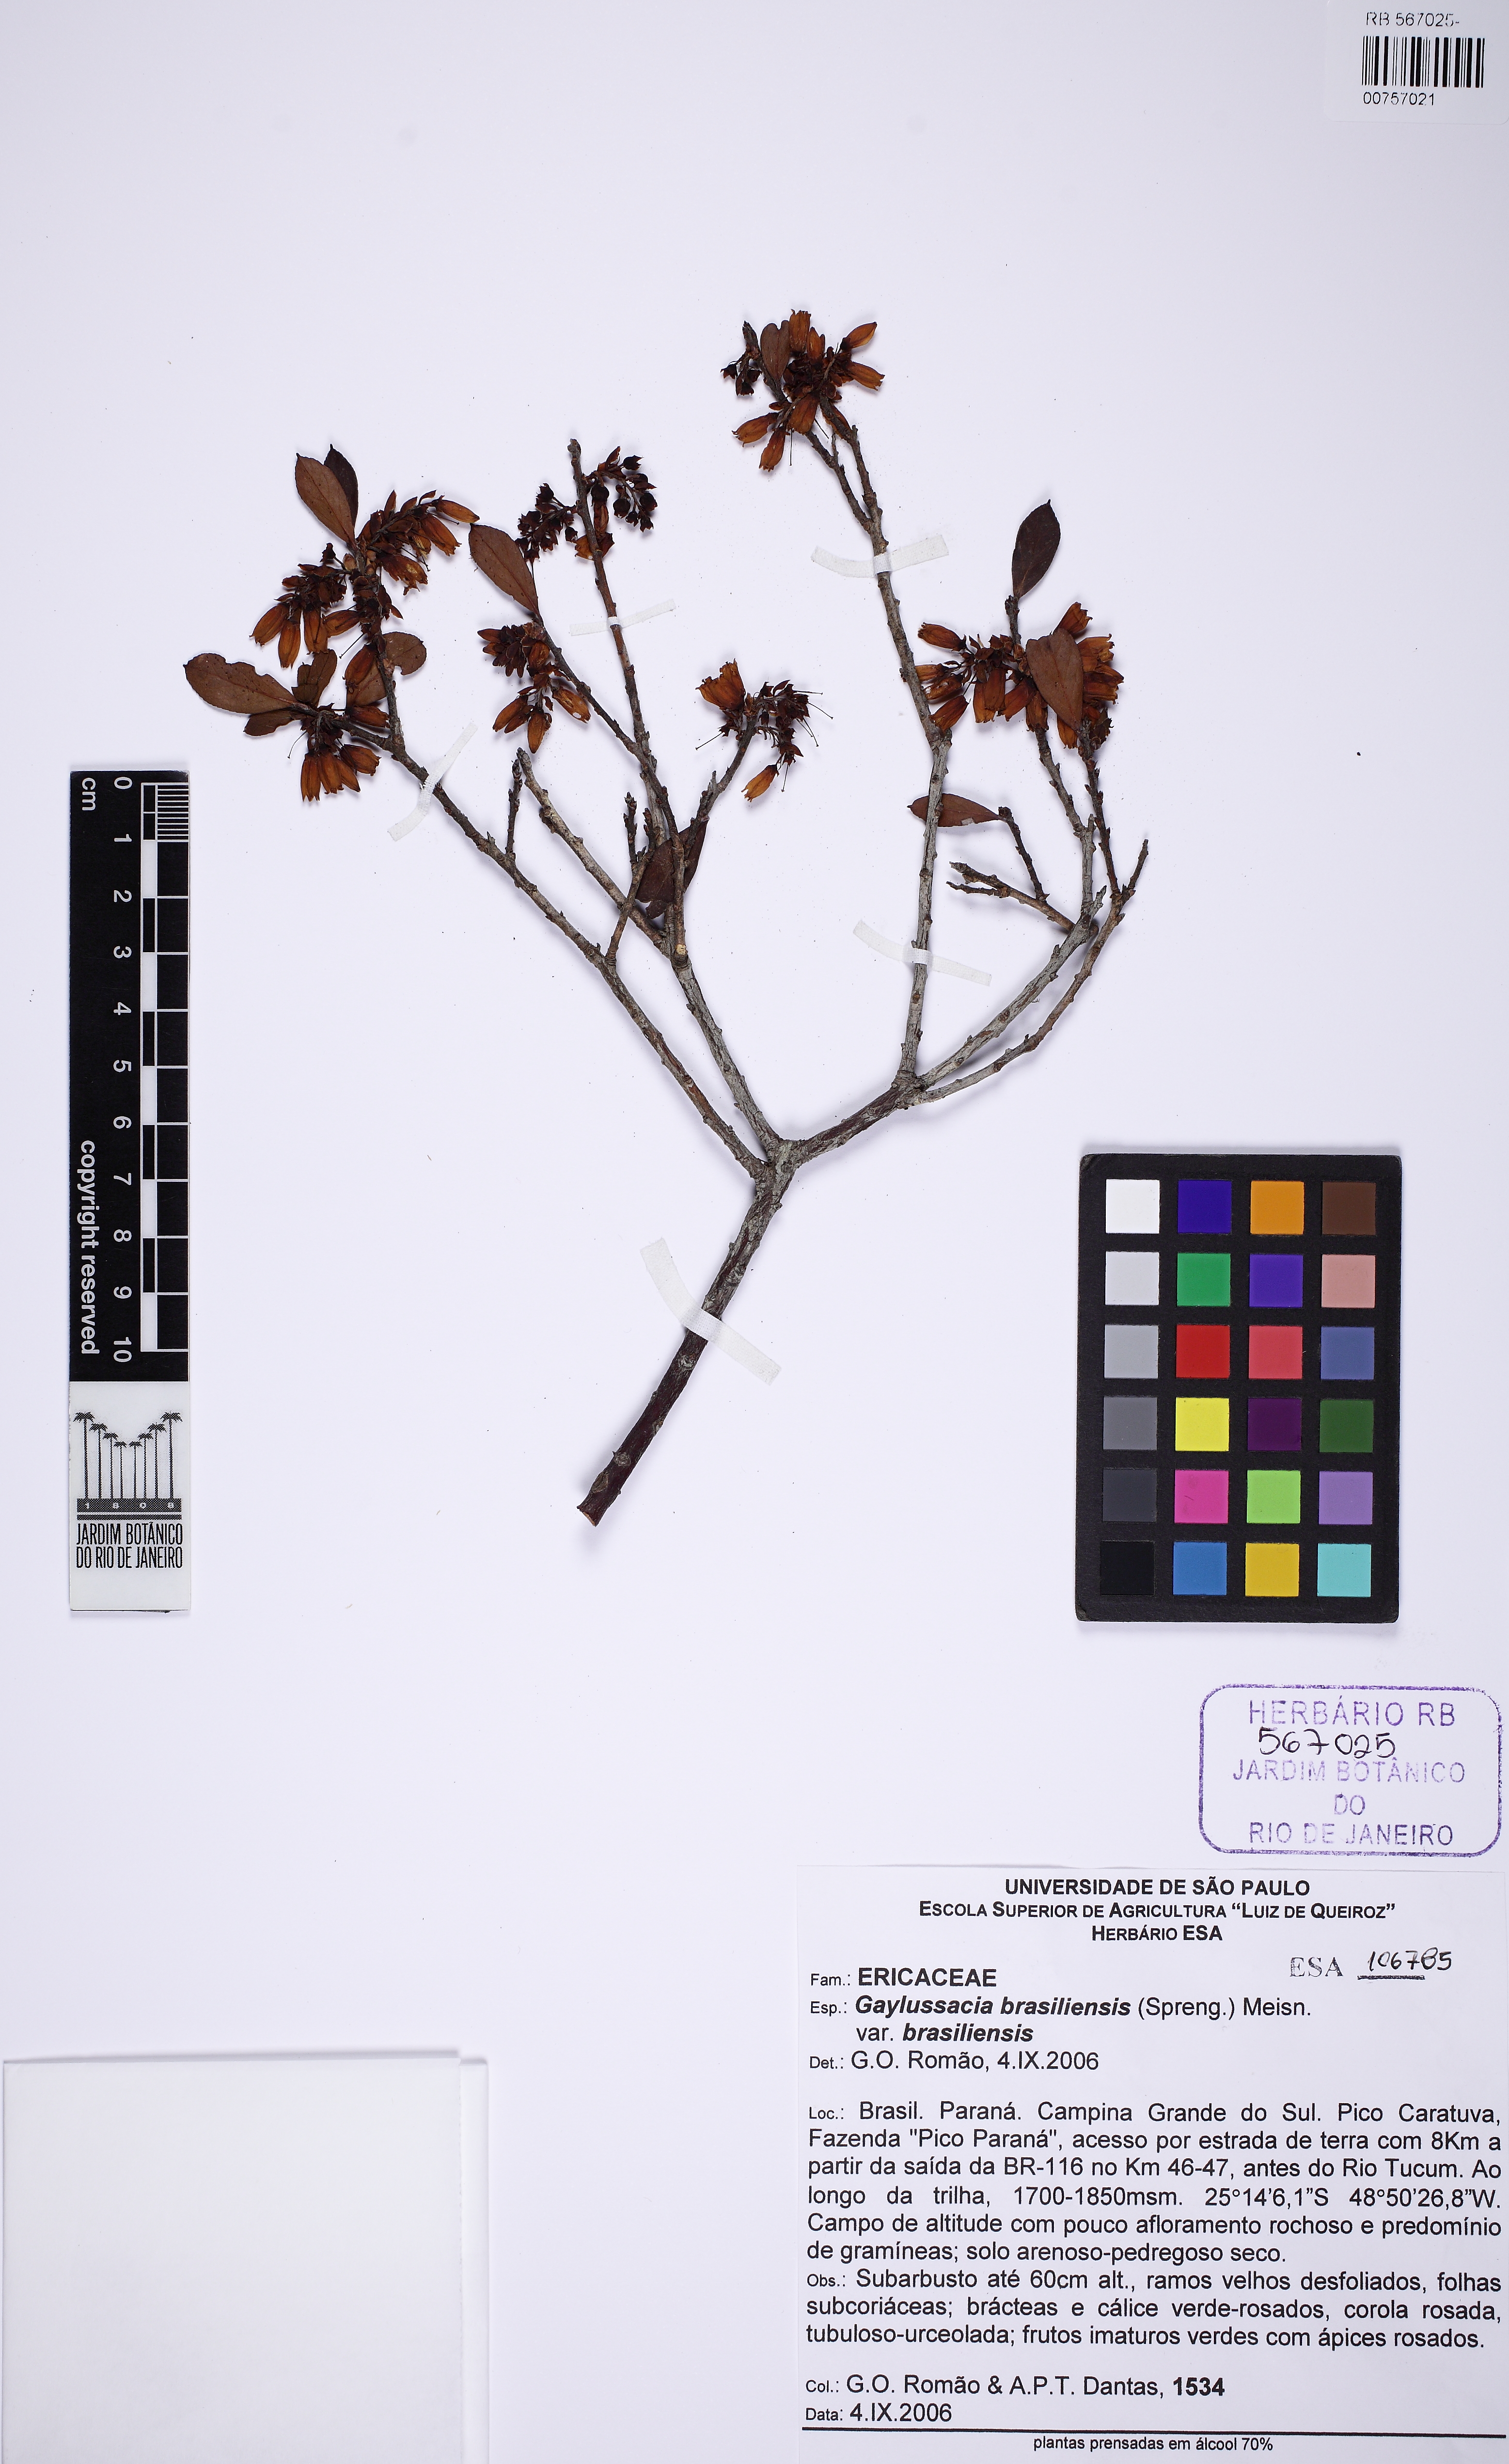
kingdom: Plantae
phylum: Tracheophyta
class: Magnoliopsida
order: Ericales
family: Ericaceae
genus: Gaylussacia
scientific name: Gaylussacia brasiliensis
